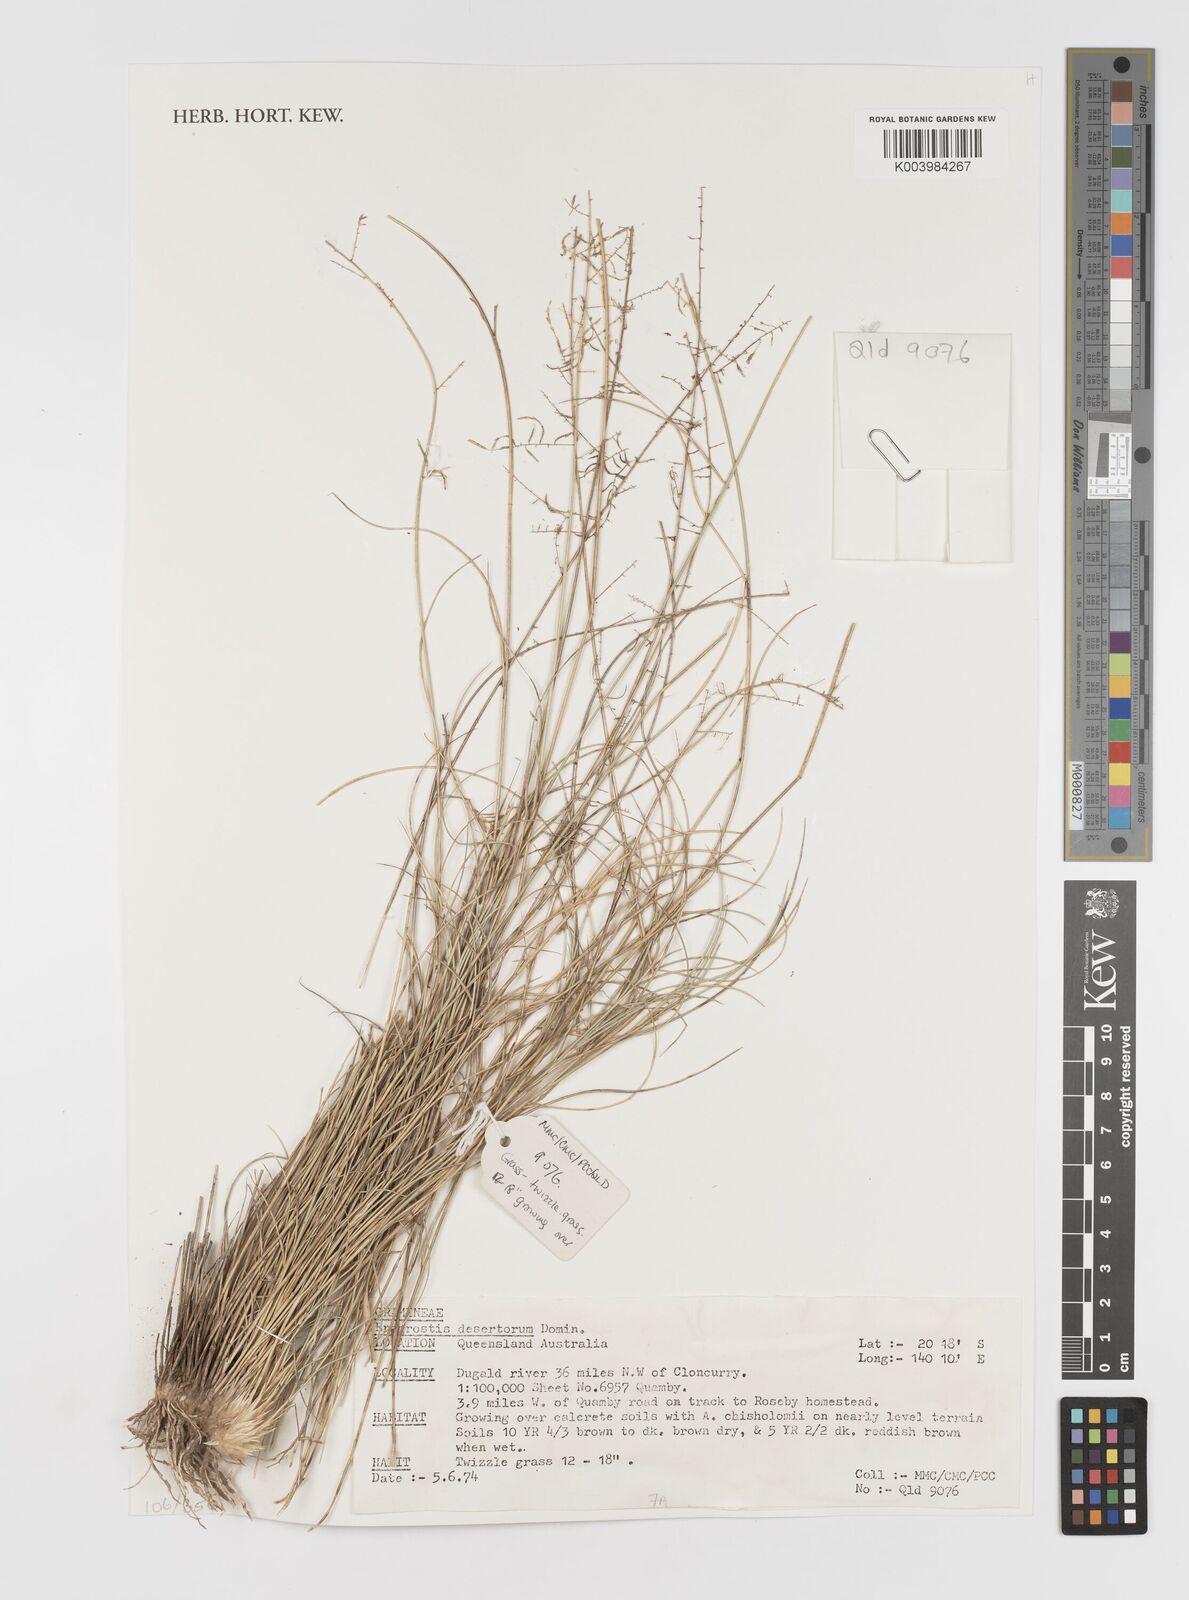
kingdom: Plantae
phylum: Tracheophyta
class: Liliopsida
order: Poales
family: Poaceae
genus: Eragrostis
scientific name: Eragrostis desertorum
